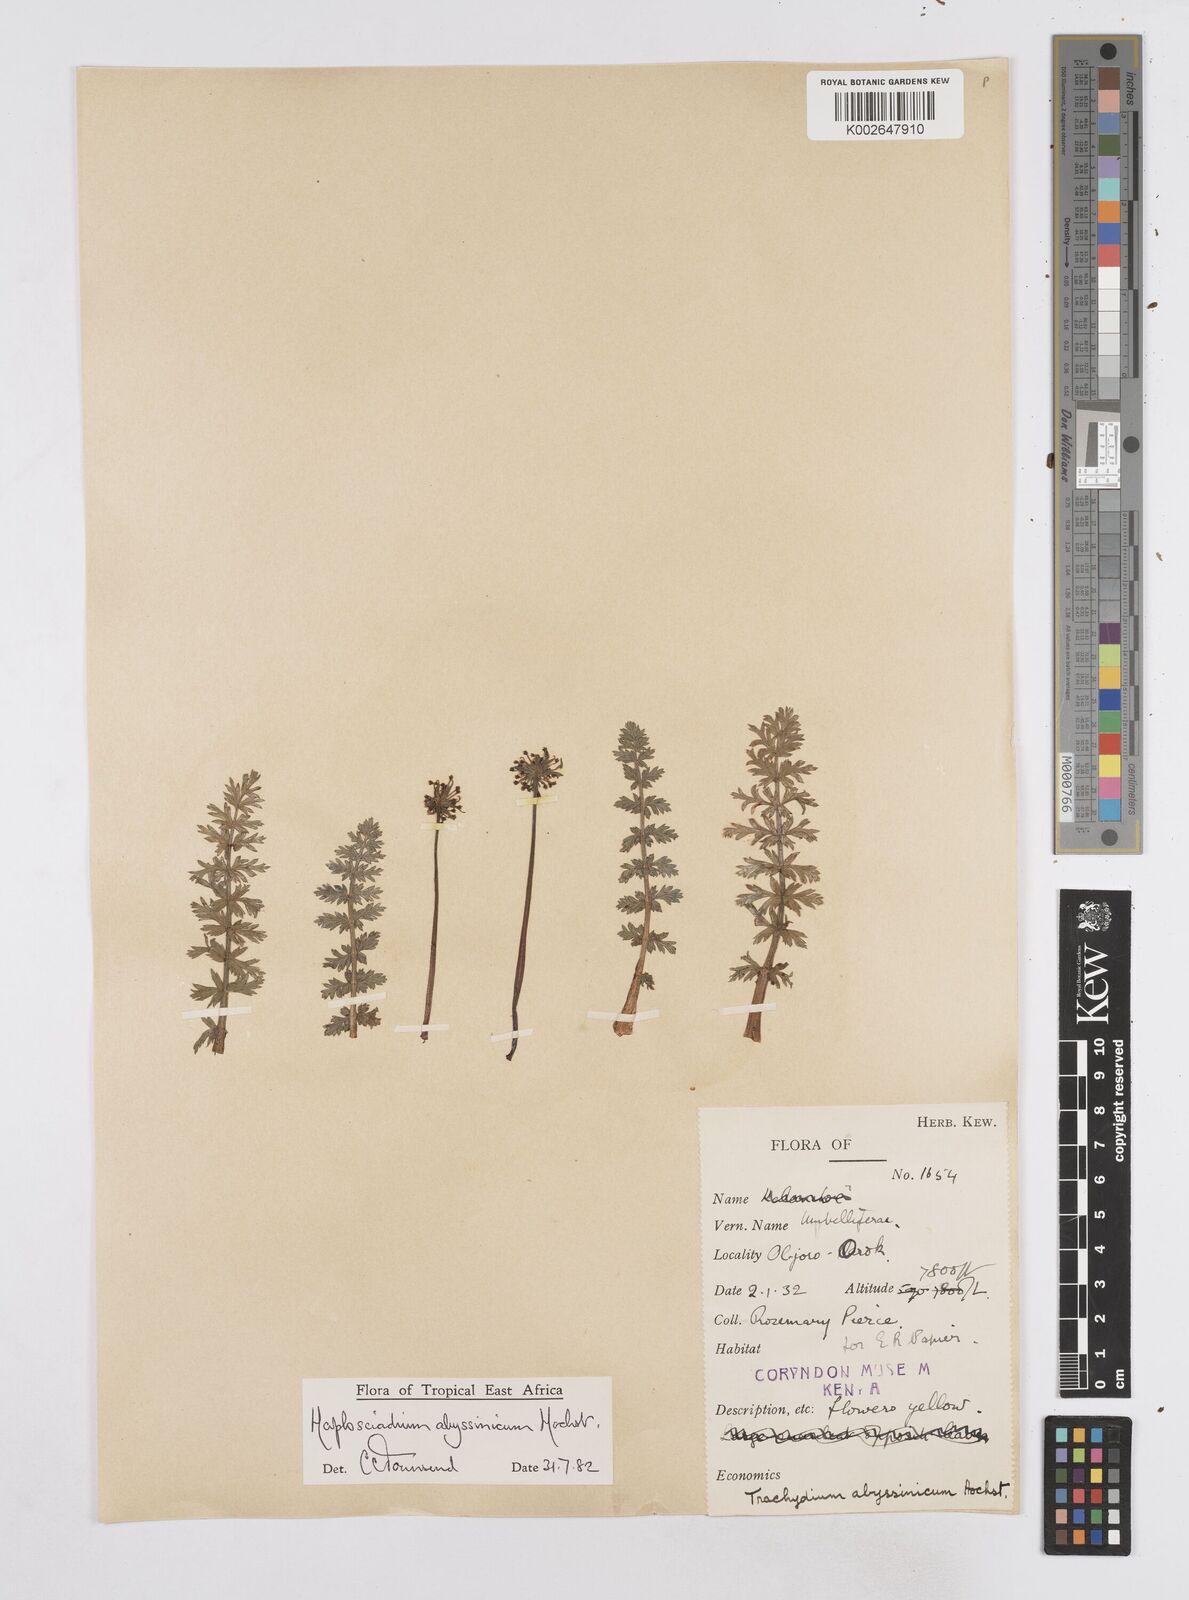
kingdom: Plantae
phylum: Tracheophyta
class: Magnoliopsida
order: Apiales
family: Apiaceae
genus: Haplosciadium
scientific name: Haplosciadium abyssinicum
